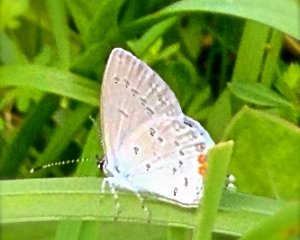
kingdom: Animalia
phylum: Arthropoda
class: Insecta
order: Lepidoptera
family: Lycaenidae
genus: Elkalyce
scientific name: Elkalyce comyntas
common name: Eastern Tailed-Blue
